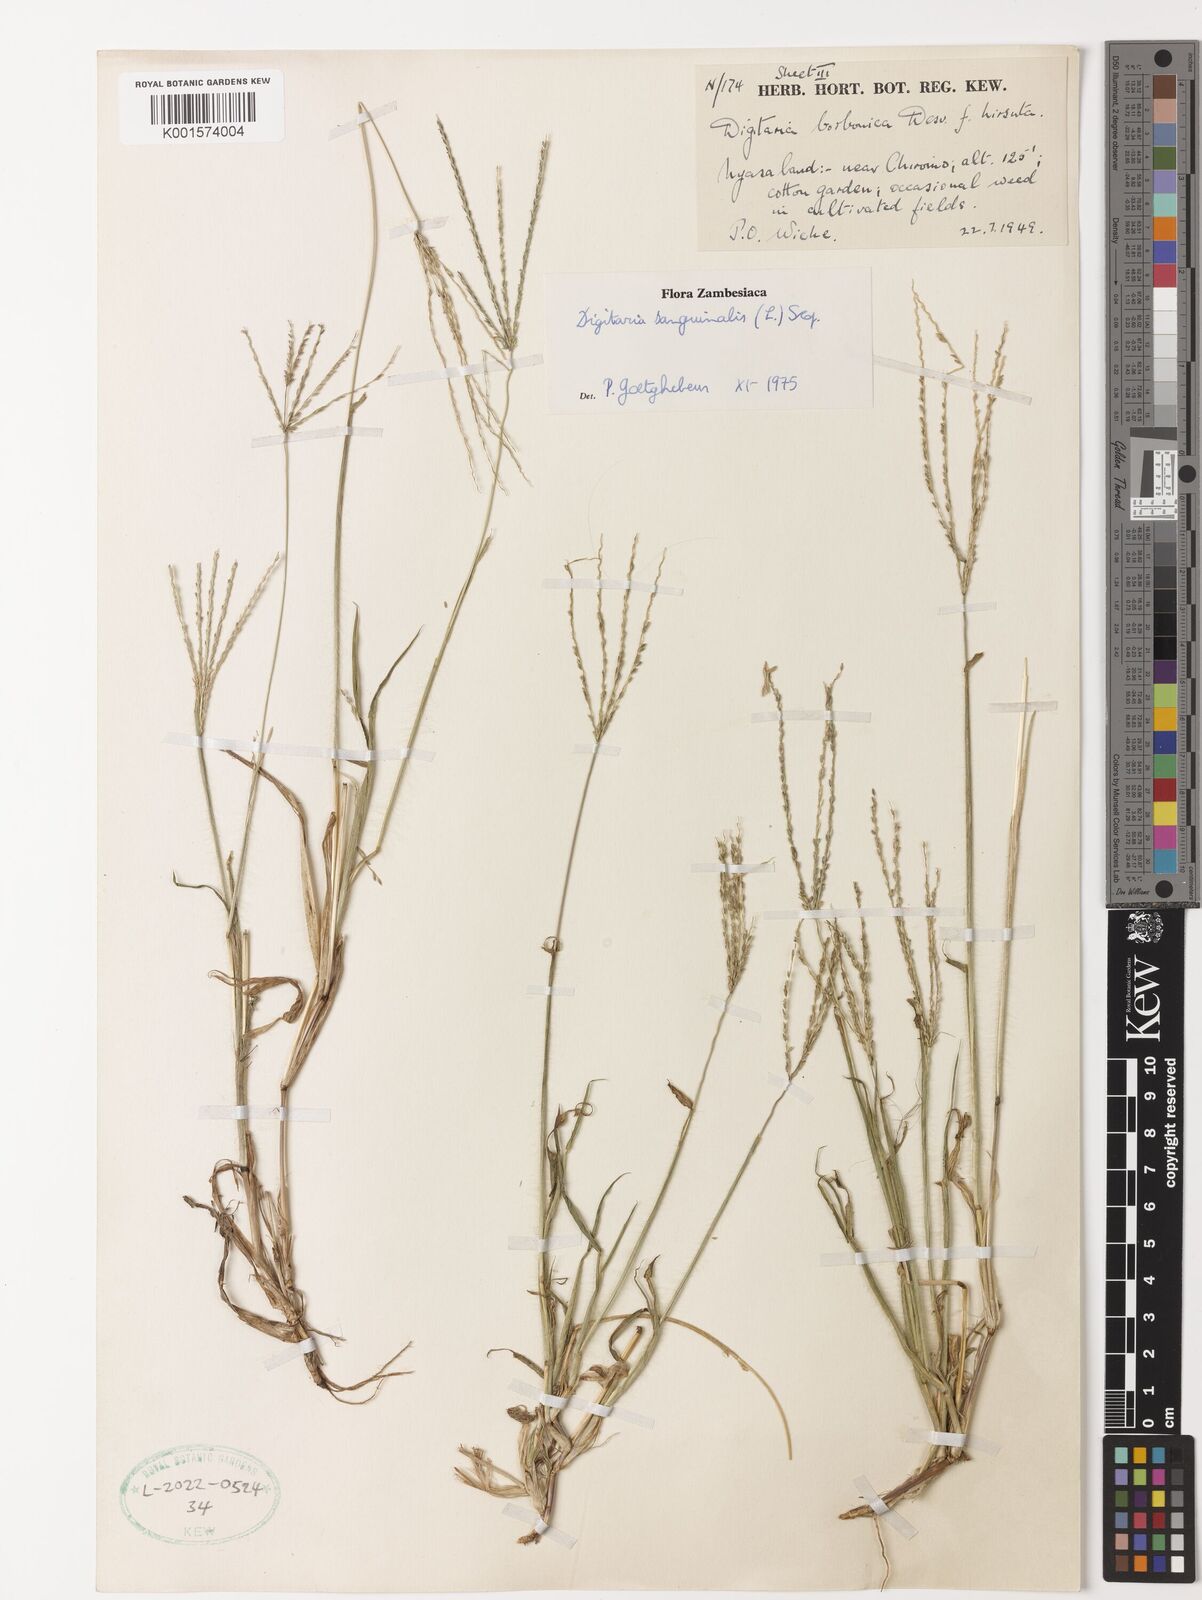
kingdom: Plantae
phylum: Tracheophyta
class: Liliopsida
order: Poales
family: Poaceae
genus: Digitaria
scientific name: Digitaria sanguinalis
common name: Hairy crabgrass
